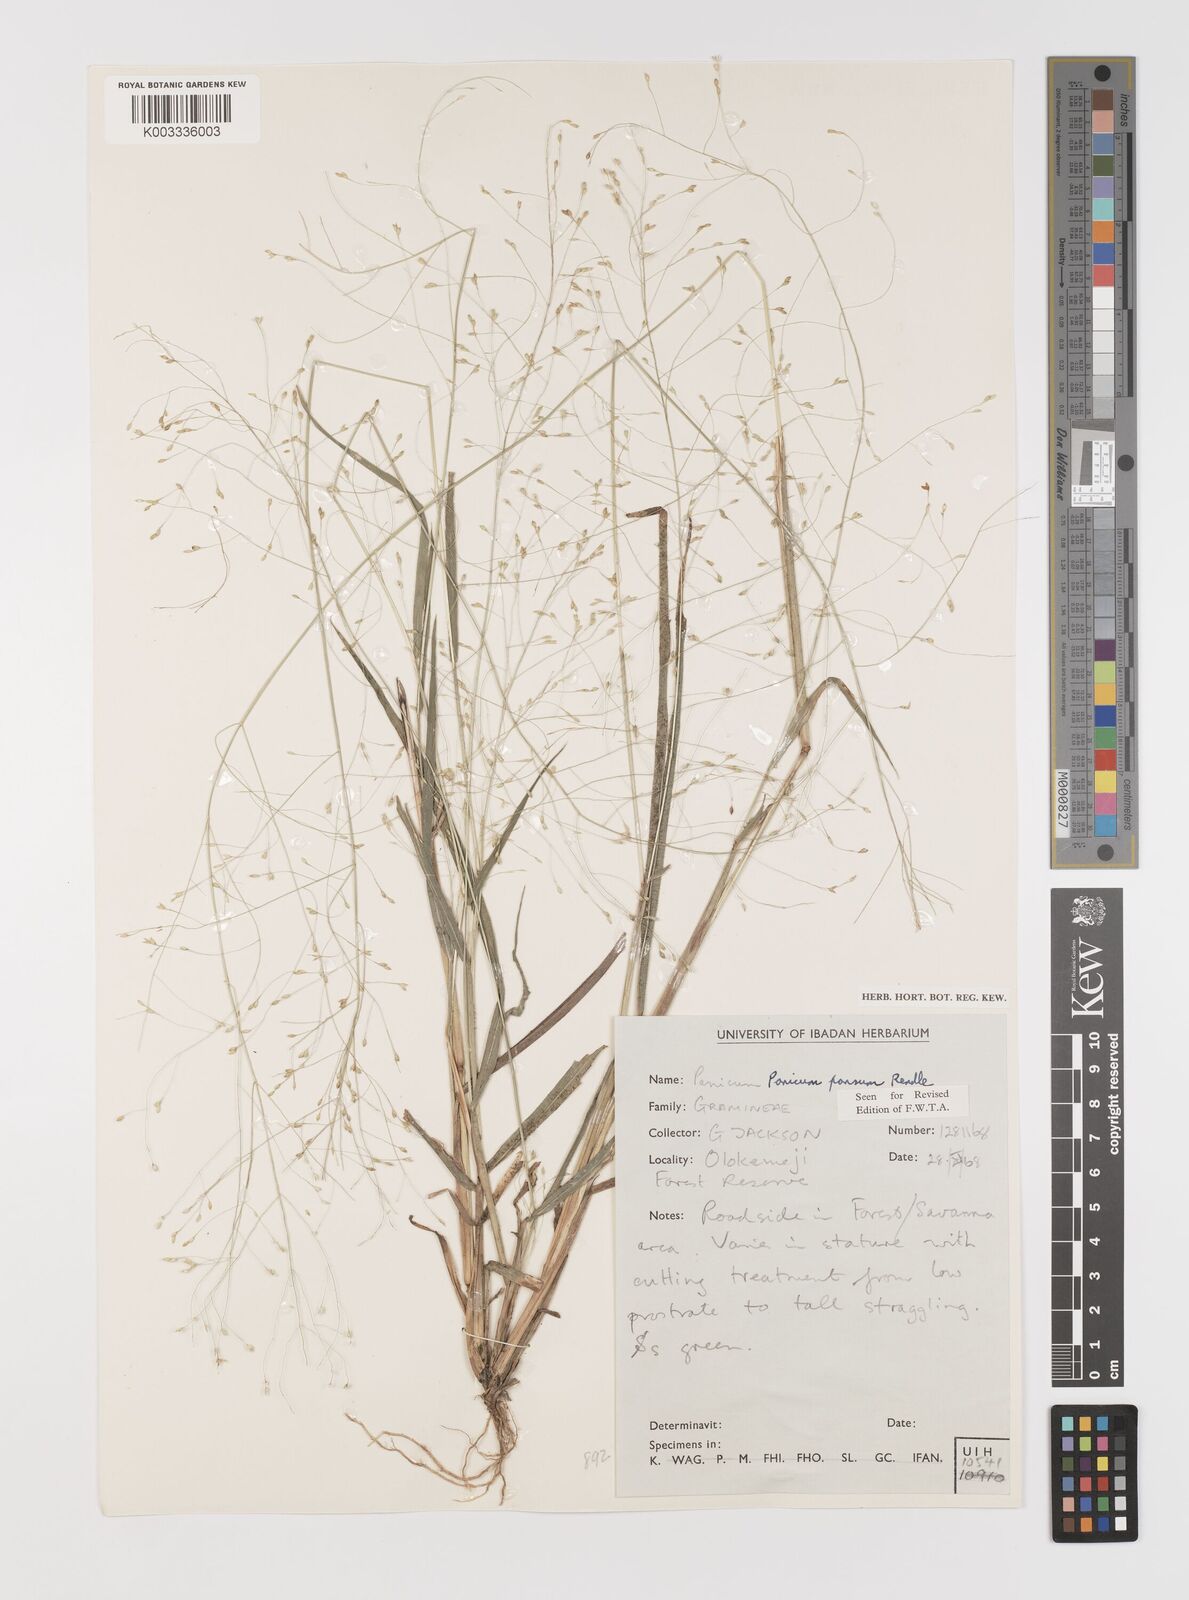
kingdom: Plantae
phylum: Tracheophyta
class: Liliopsida
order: Poales
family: Poaceae
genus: Panicum
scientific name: Panicum pansum
